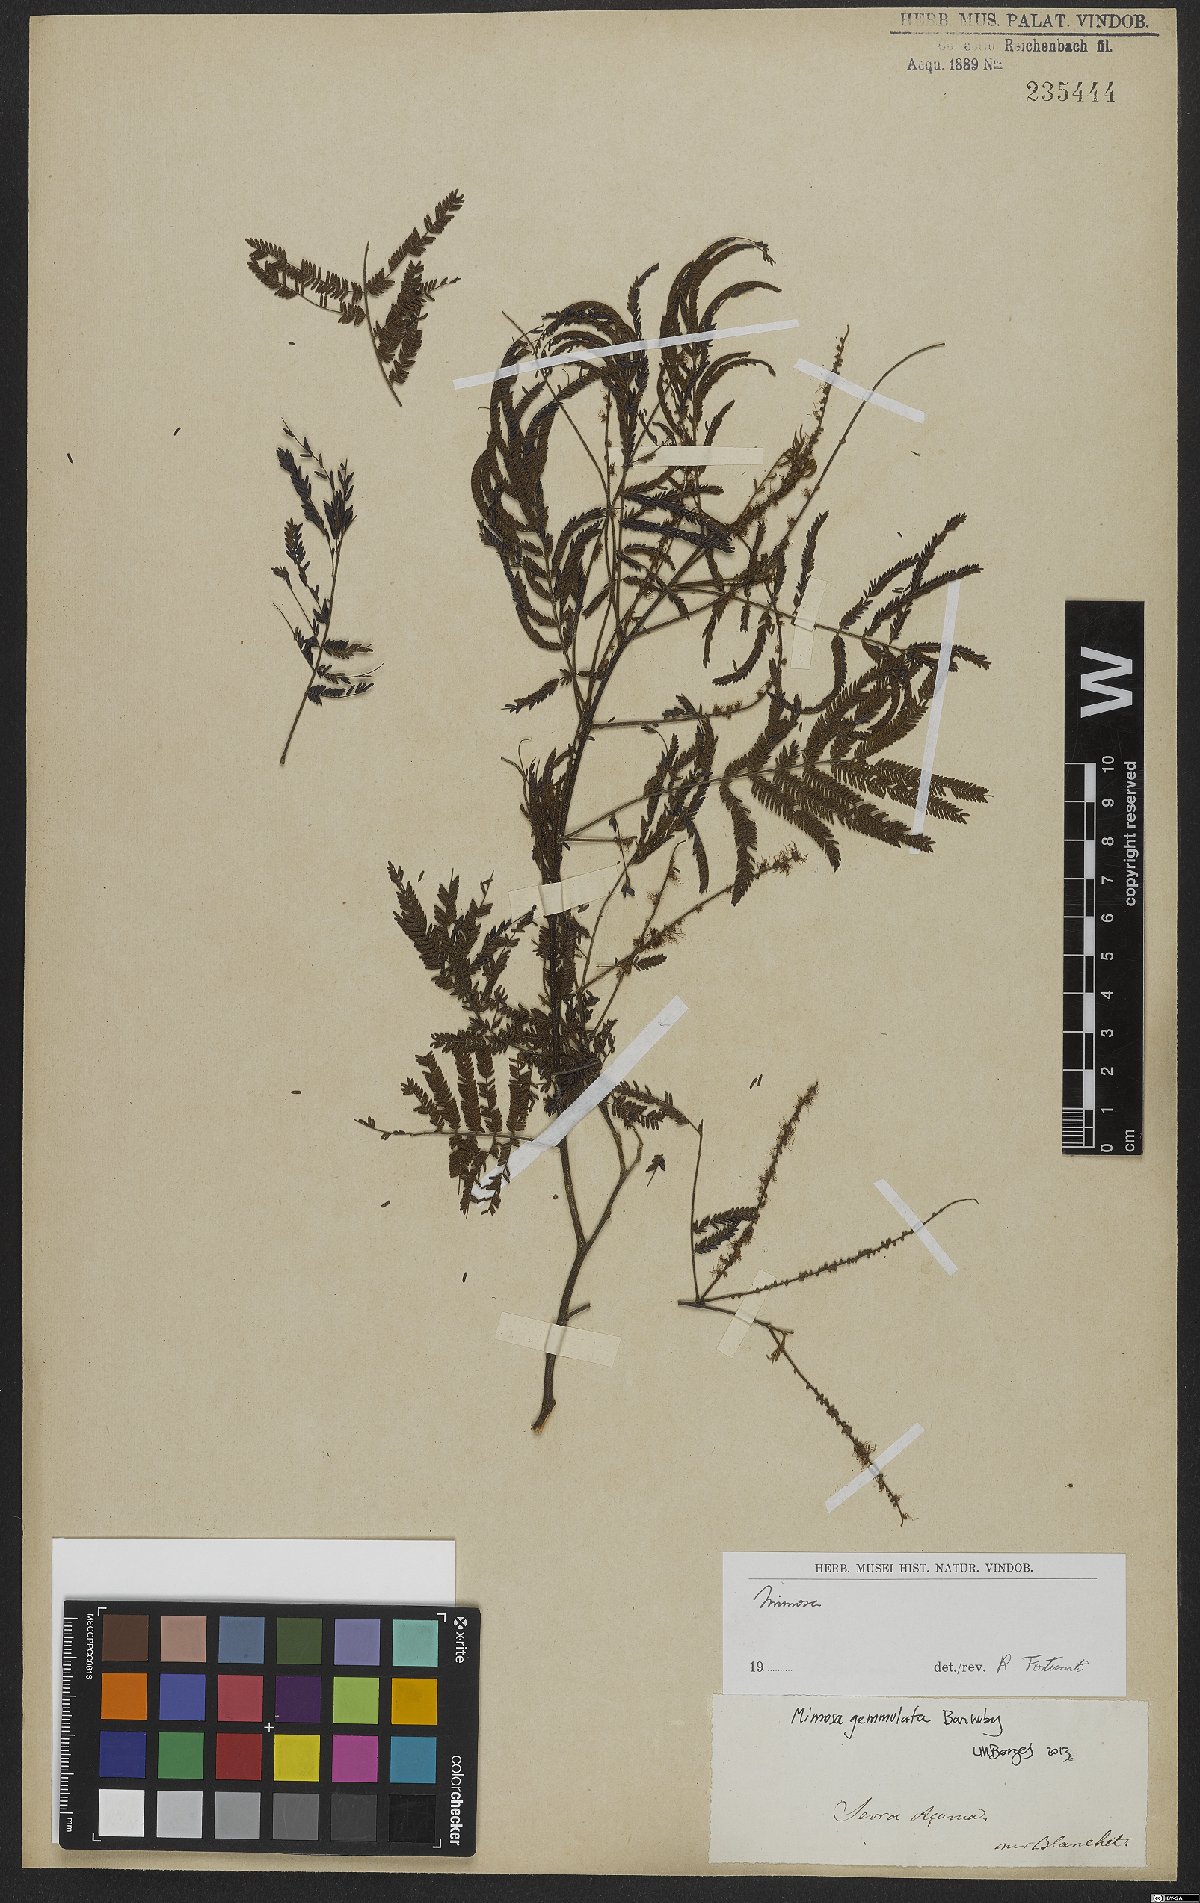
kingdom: Plantae
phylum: Tracheophyta
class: Magnoliopsida
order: Fabales
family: Fabaceae
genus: Mimosa
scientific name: Mimosa gemmulata
